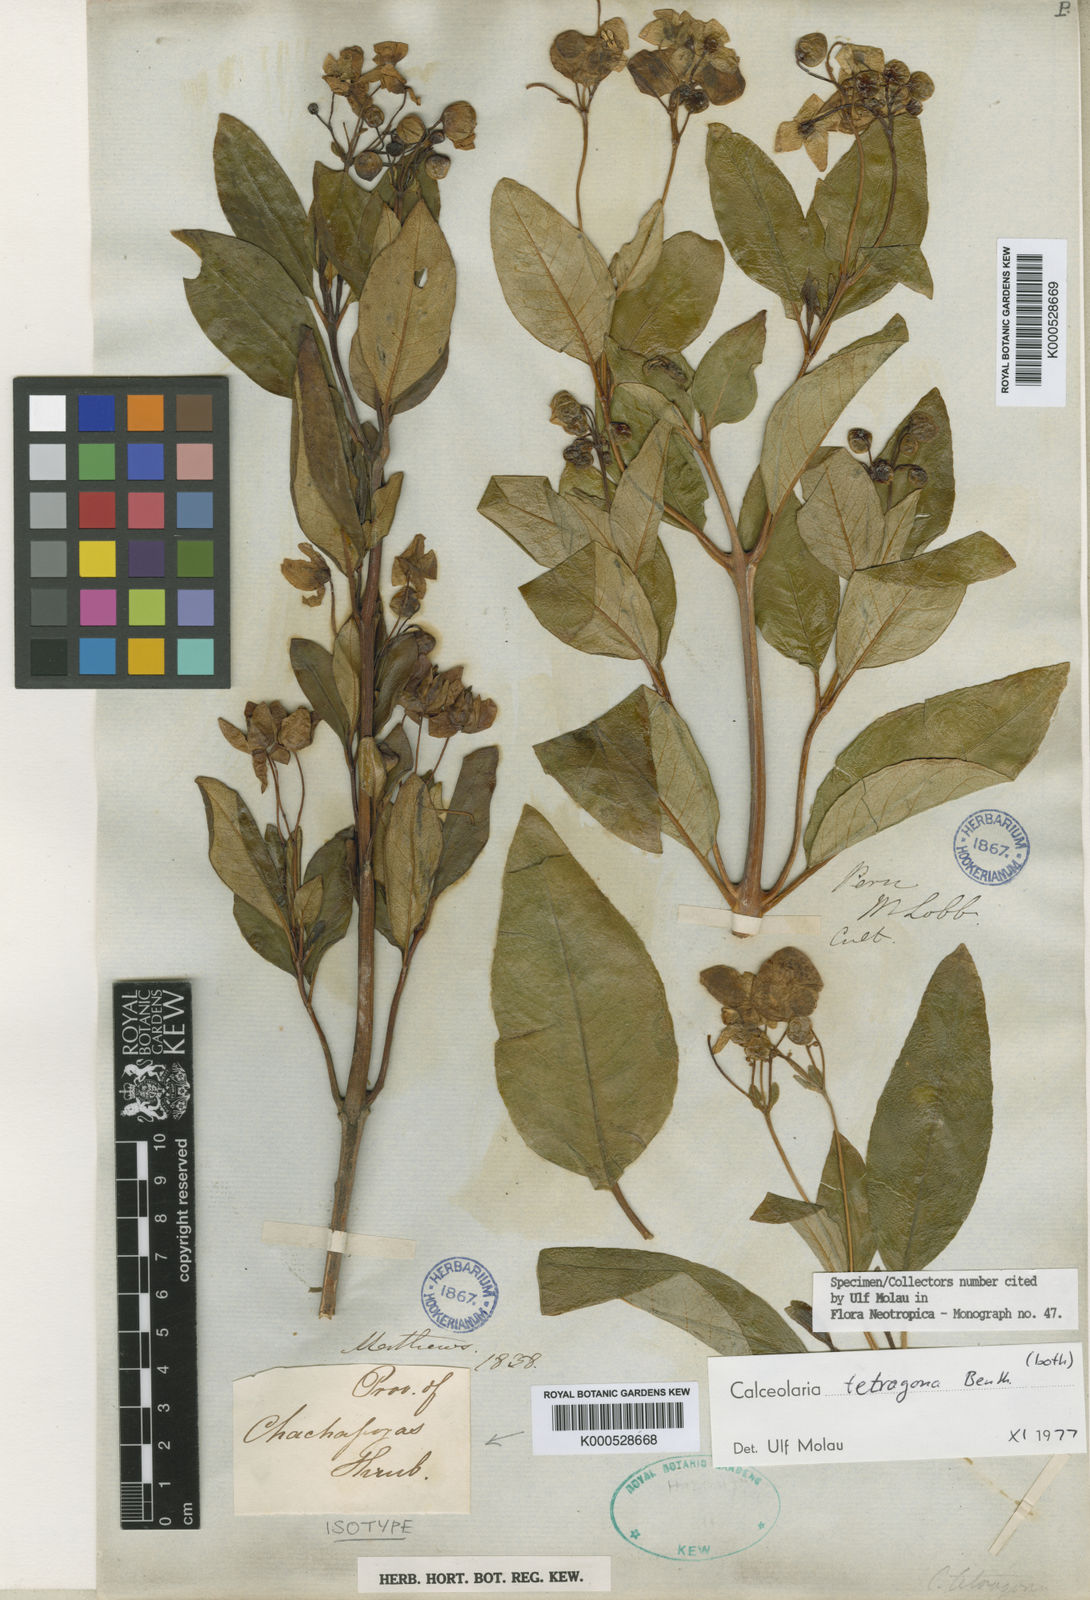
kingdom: Plantae
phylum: Tracheophyta
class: Magnoliopsida
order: Lamiales
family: Calceolariaceae
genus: Calceolaria
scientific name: Calceolaria tetragona
